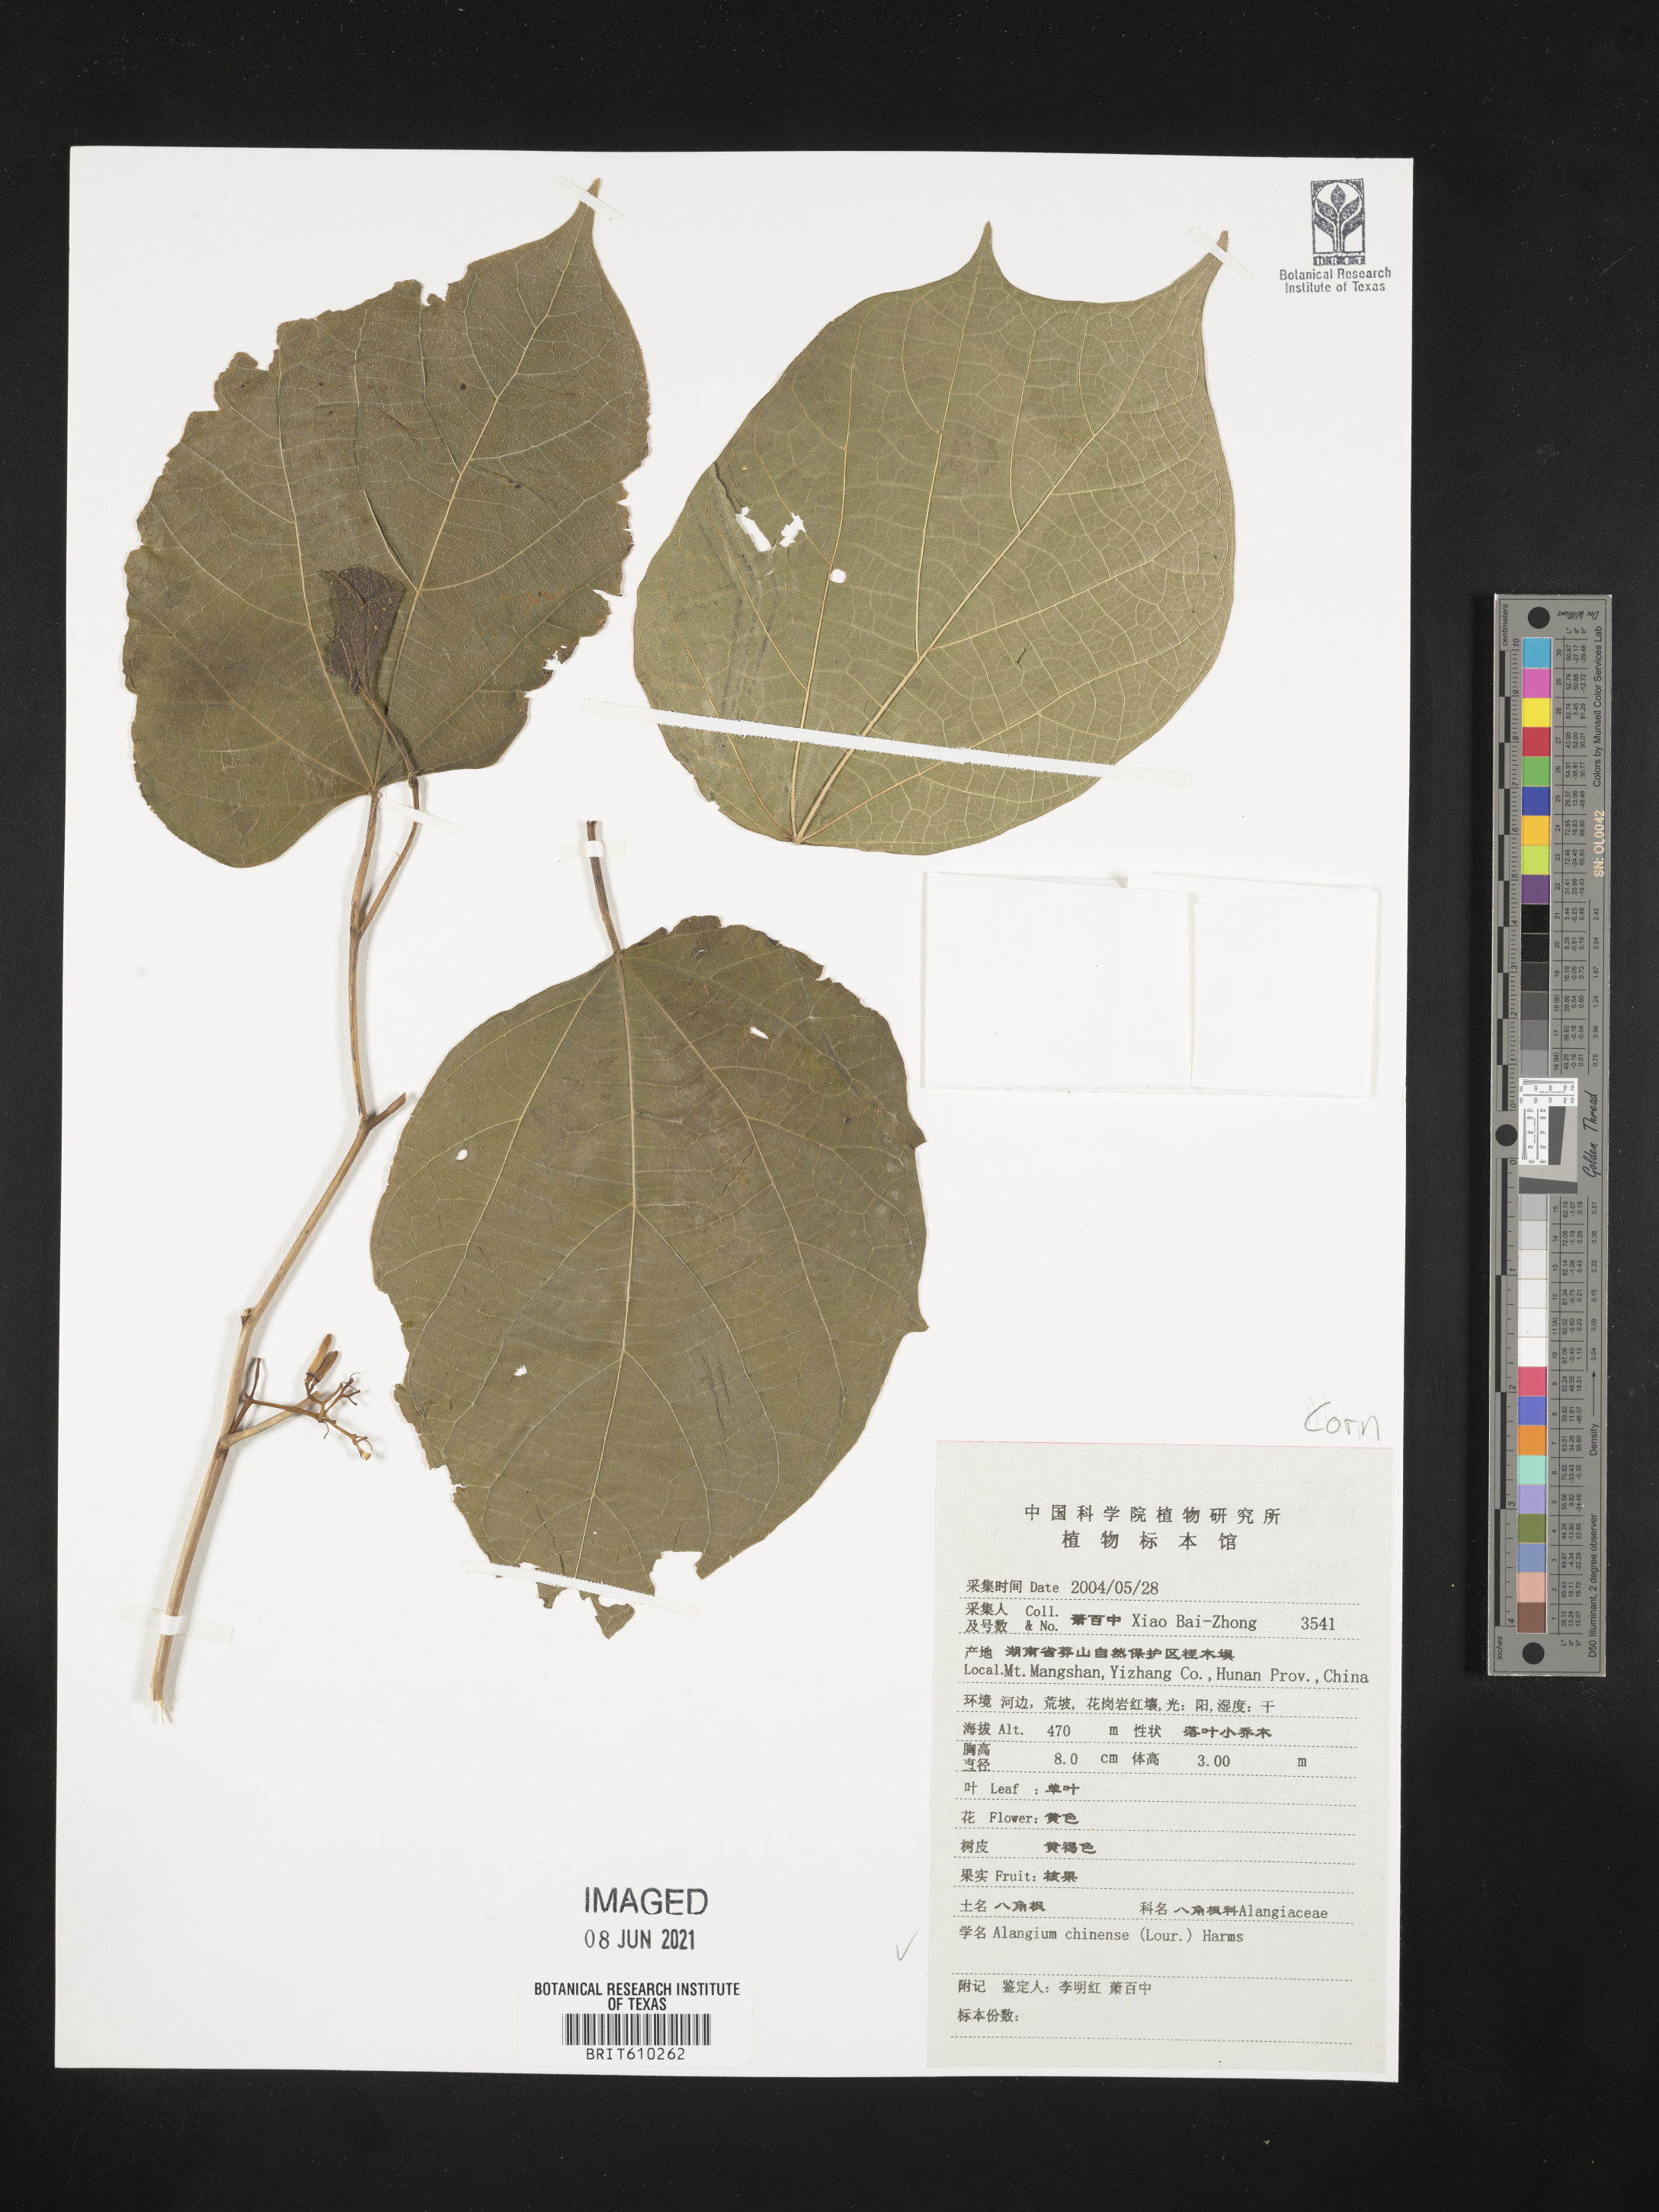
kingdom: Plantae
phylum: Tracheophyta
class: Magnoliopsida
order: Cornales
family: Cornaceae
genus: Alangium
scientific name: Alangium chinense
